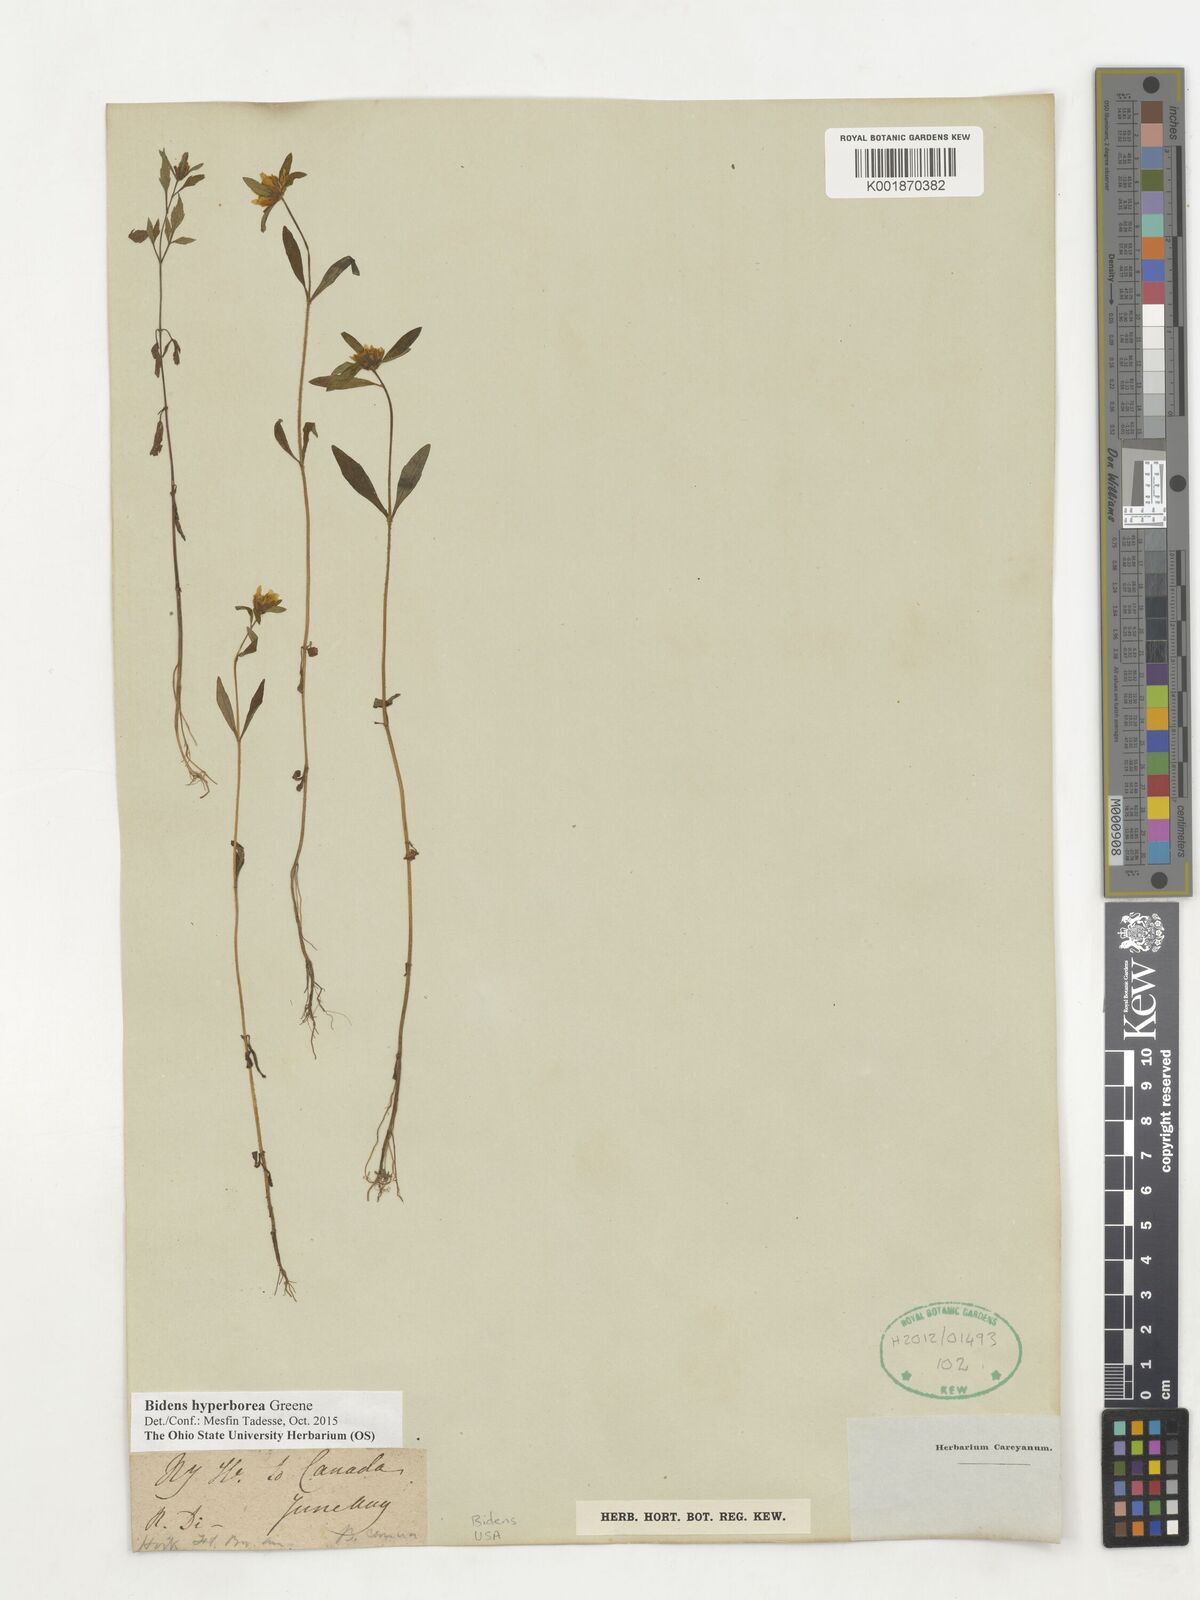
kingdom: Plantae
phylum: Tracheophyta
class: Magnoliopsida
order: Asterales
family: Asteraceae
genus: Bidens
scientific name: Bidens hyperborea
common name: Coastal beggarticks
